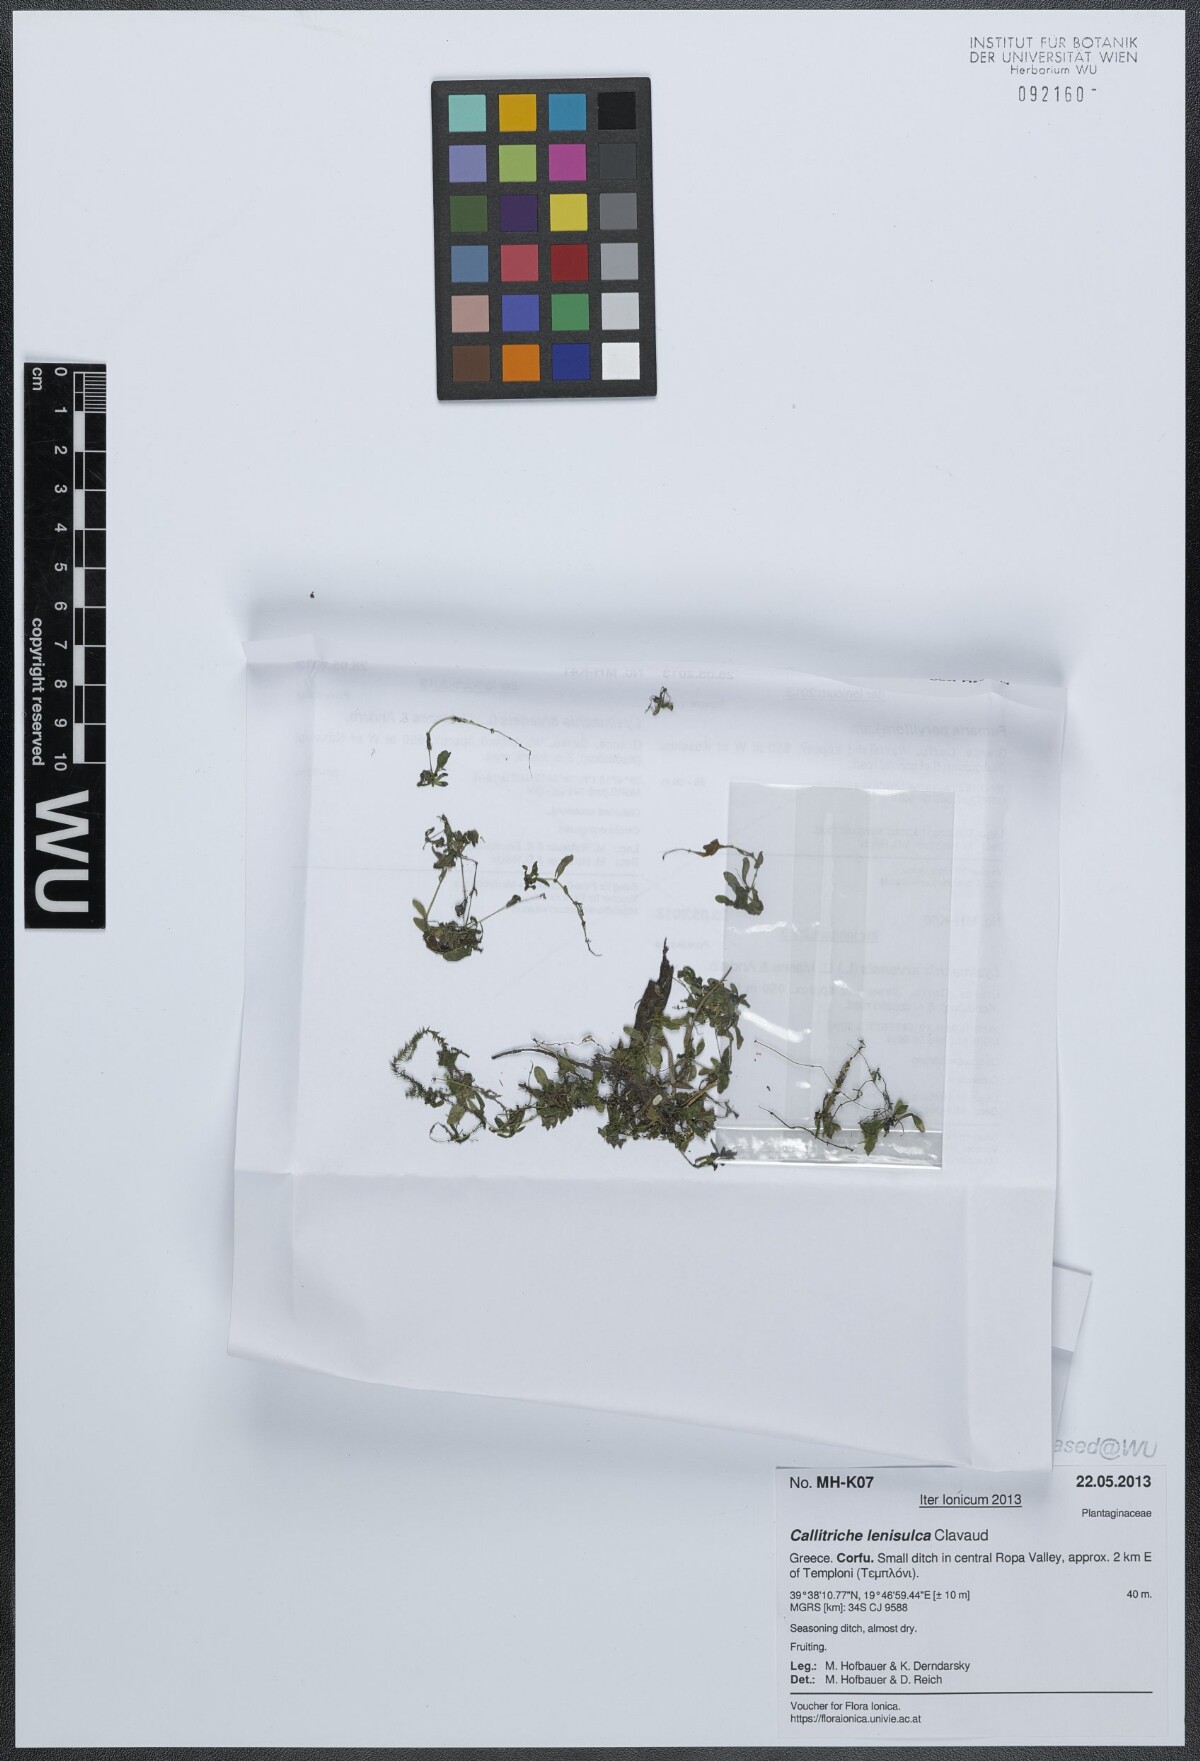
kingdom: Plantae
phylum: Tracheophyta
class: Magnoliopsida
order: Lamiales
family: Plantaginaceae
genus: Callitriche
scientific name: Callitriche lenisulca
